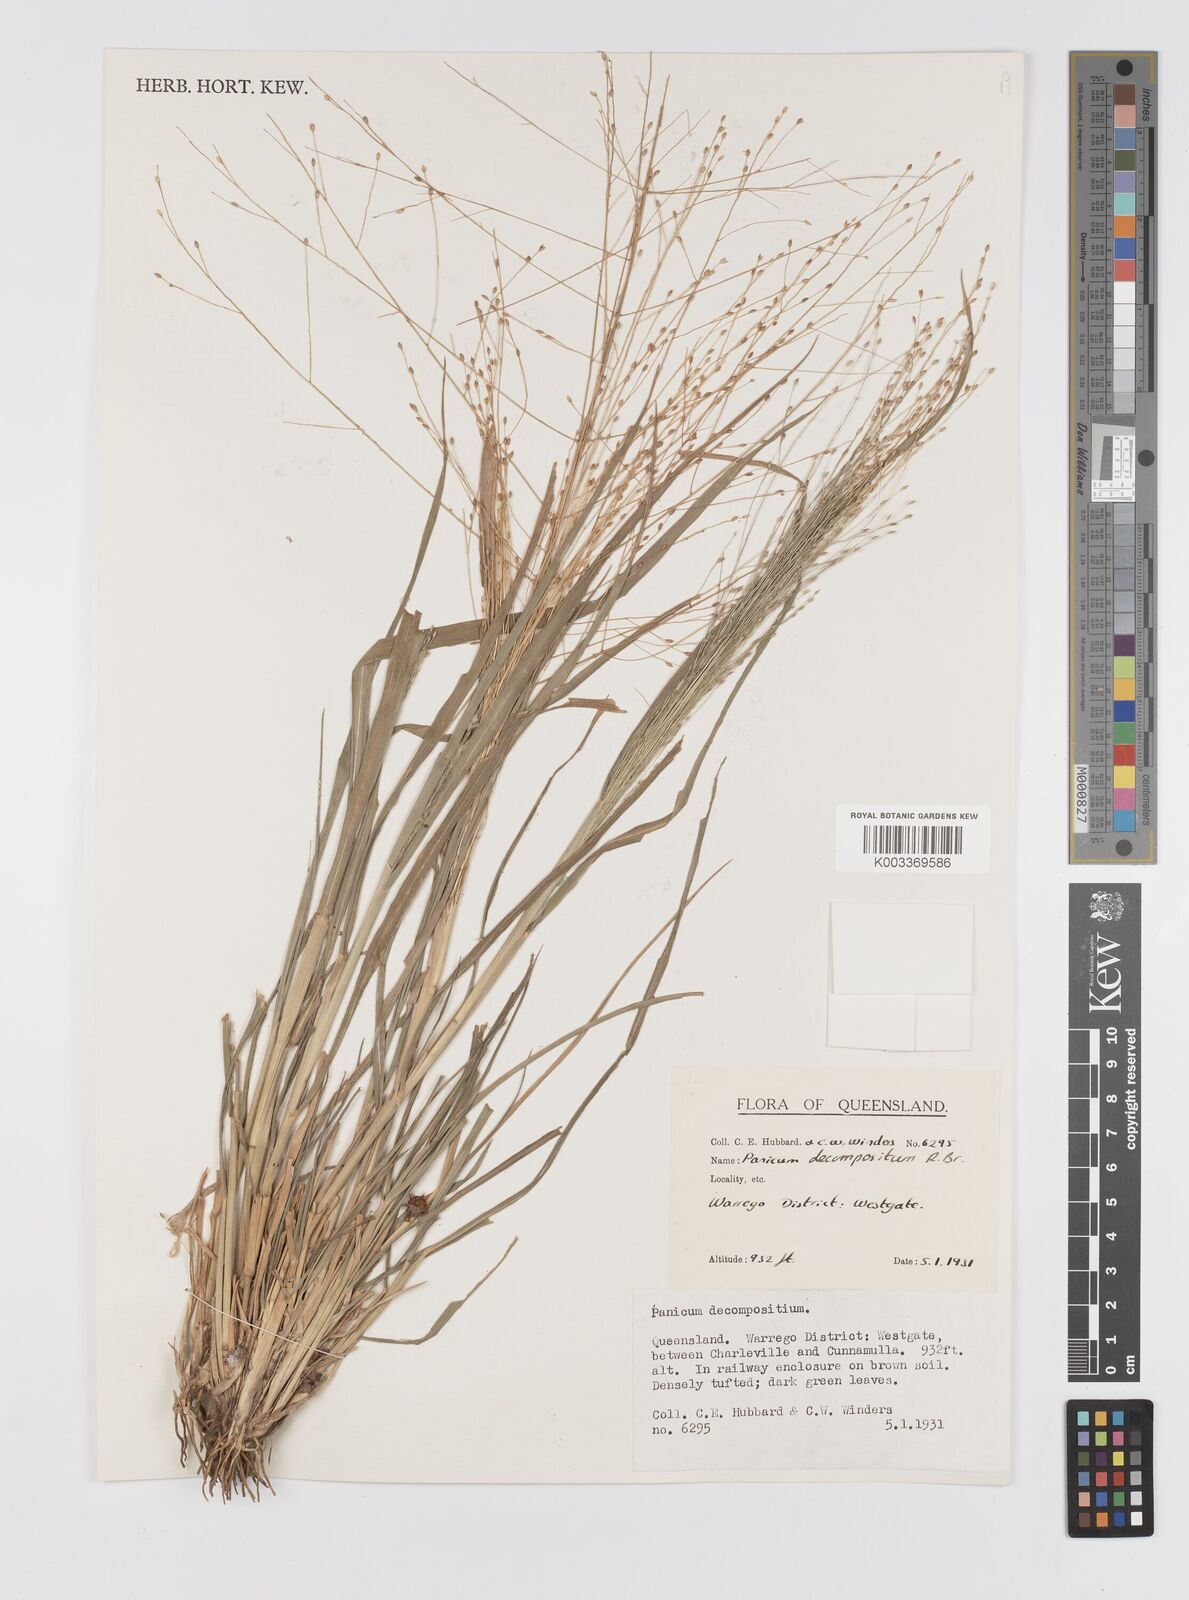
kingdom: Plantae
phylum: Tracheophyta
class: Liliopsida
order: Poales
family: Poaceae
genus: Panicum
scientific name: Panicum decompositum
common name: Australian millet
